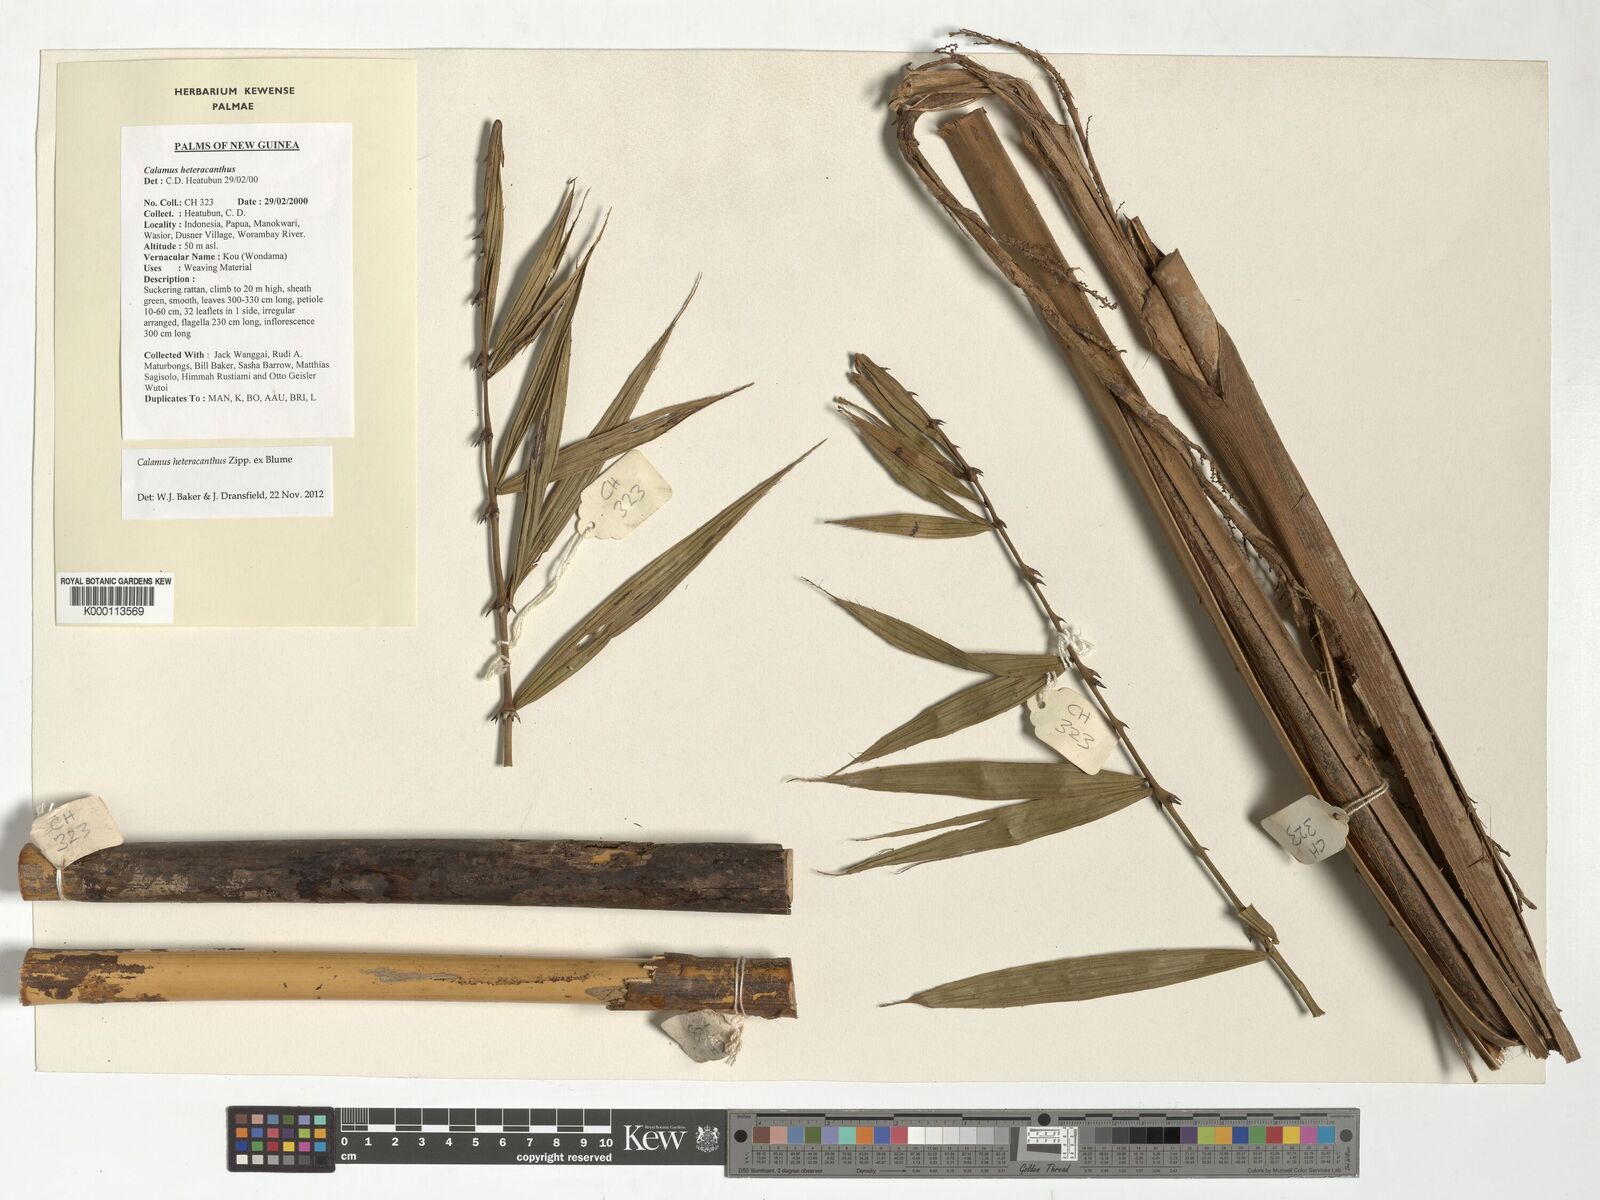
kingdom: Plantae
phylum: Tracheophyta
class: Liliopsida
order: Arecales
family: Arecaceae
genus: Calamus
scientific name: Calamus heteracanthus
